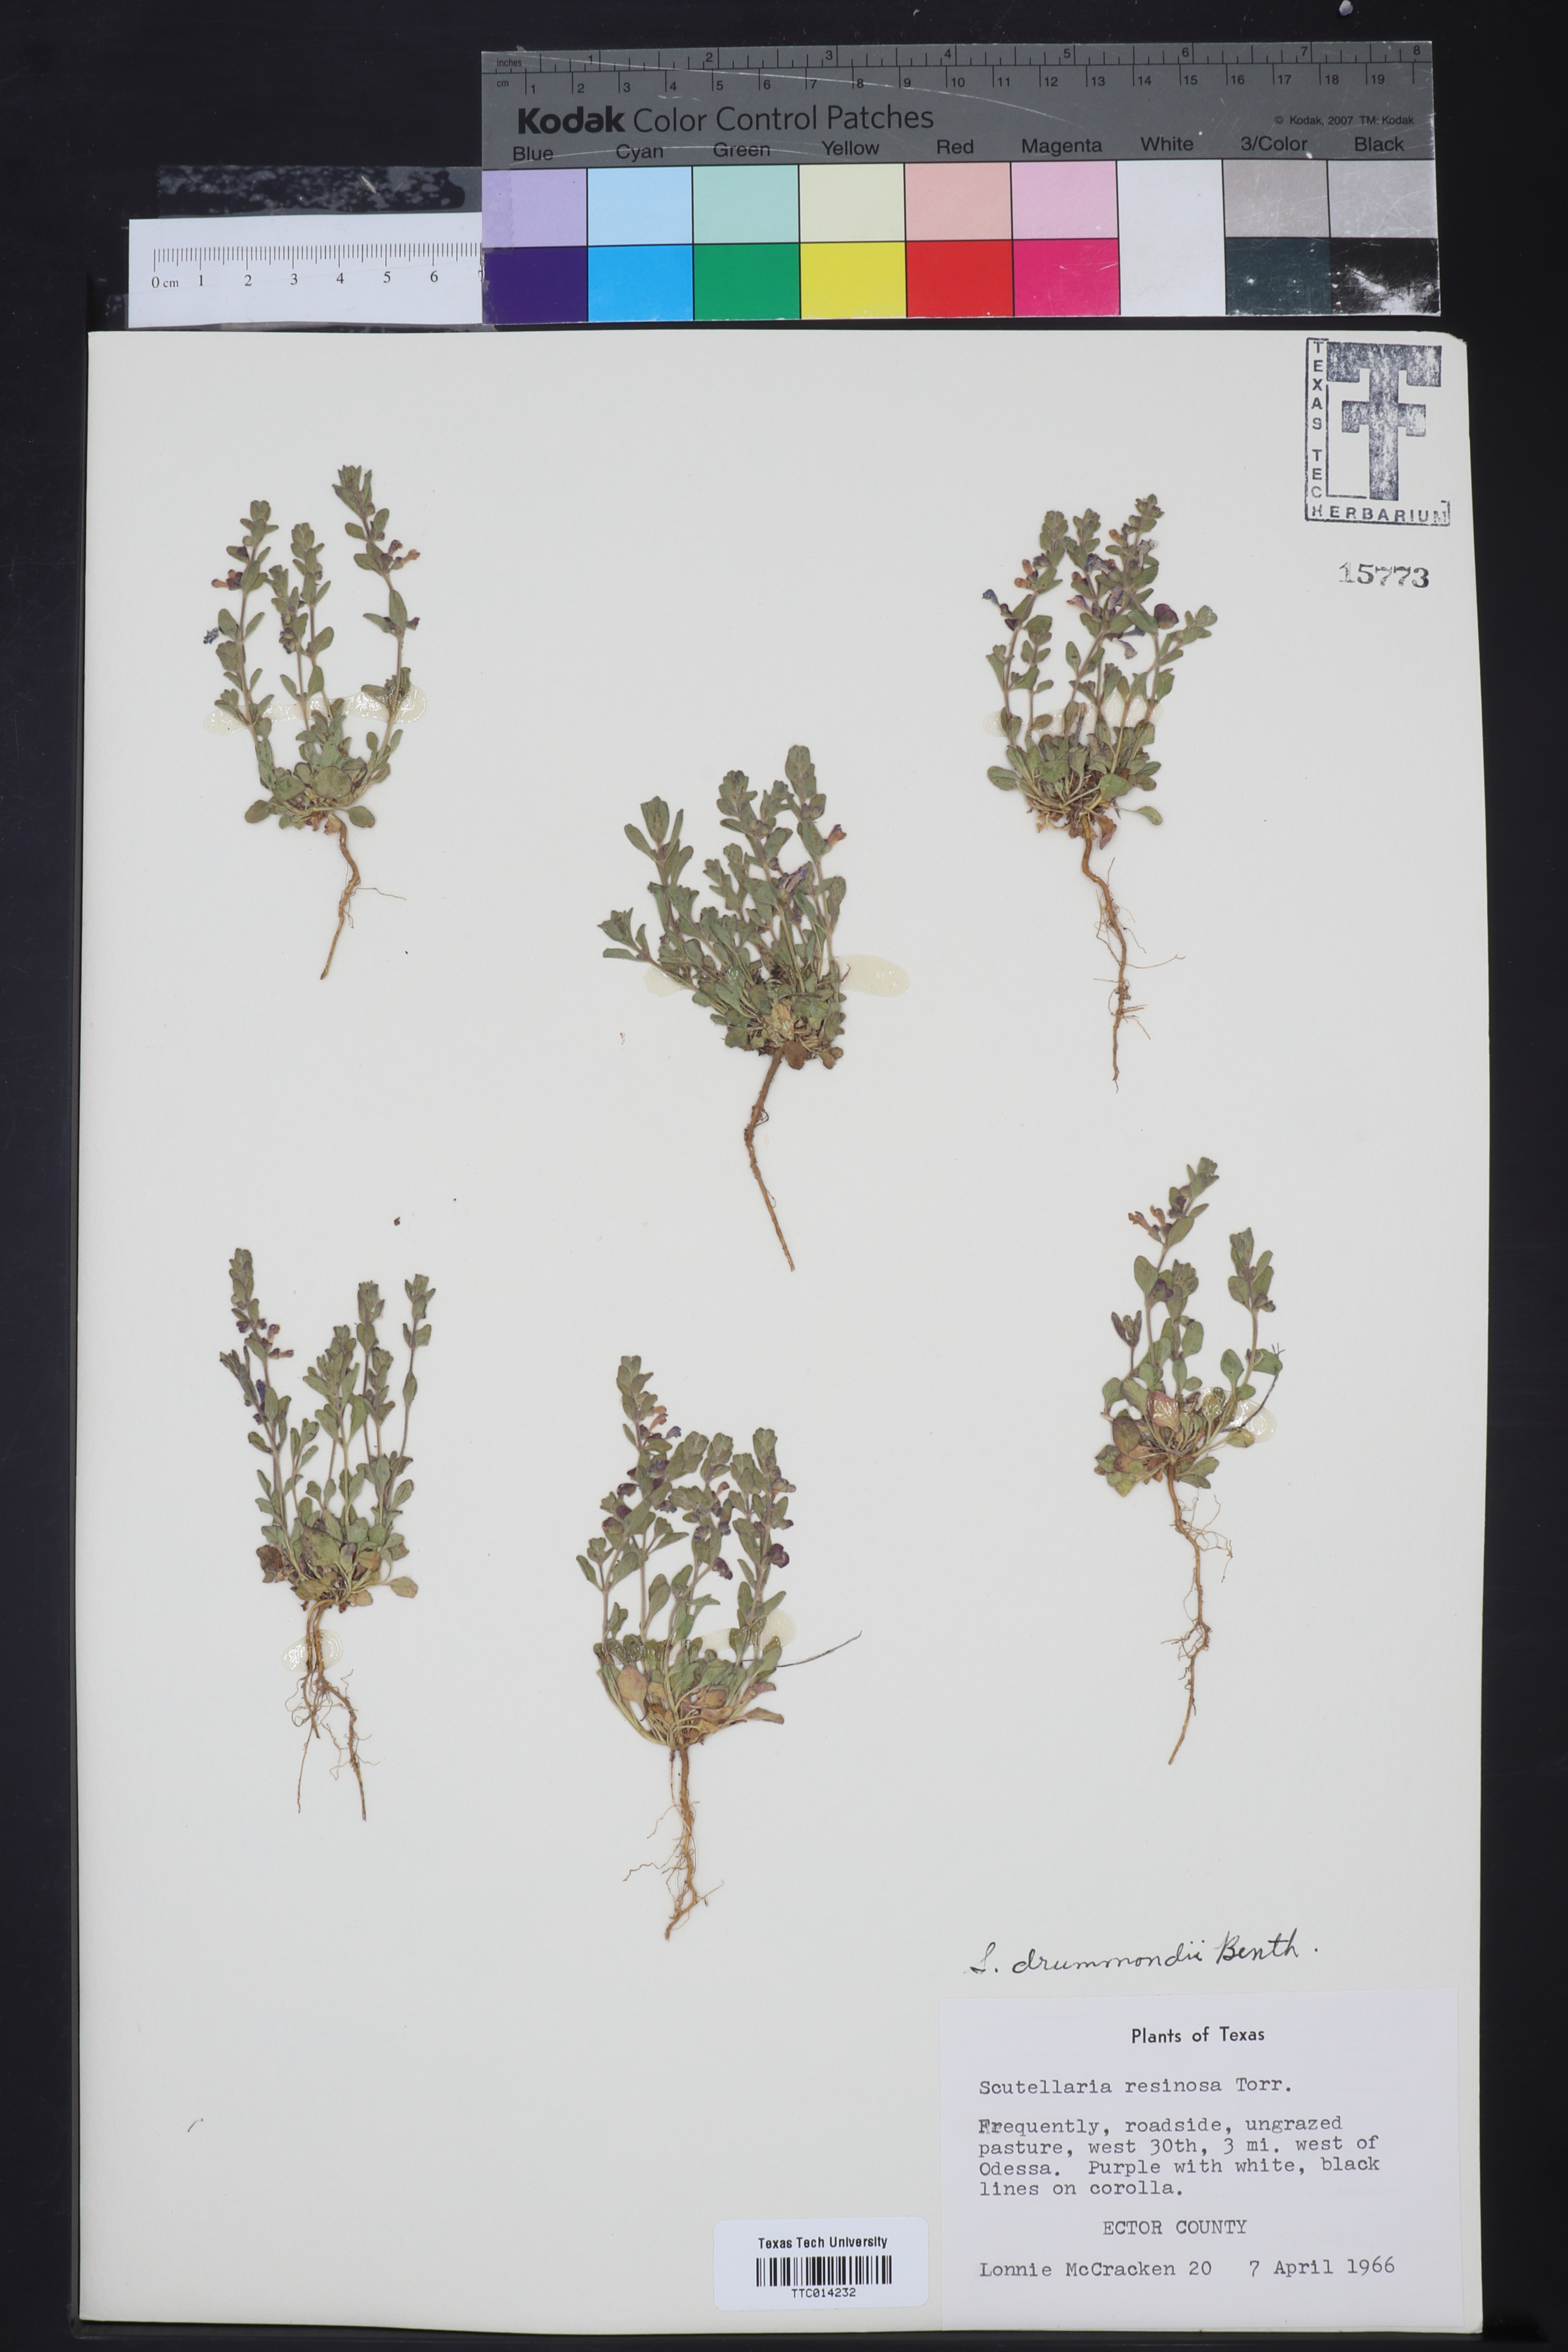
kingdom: Plantae
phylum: Tracheophyta
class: Magnoliopsida
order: Lamiales
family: Lamiaceae
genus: Scutellaria
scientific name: Scutellaria drummondii
